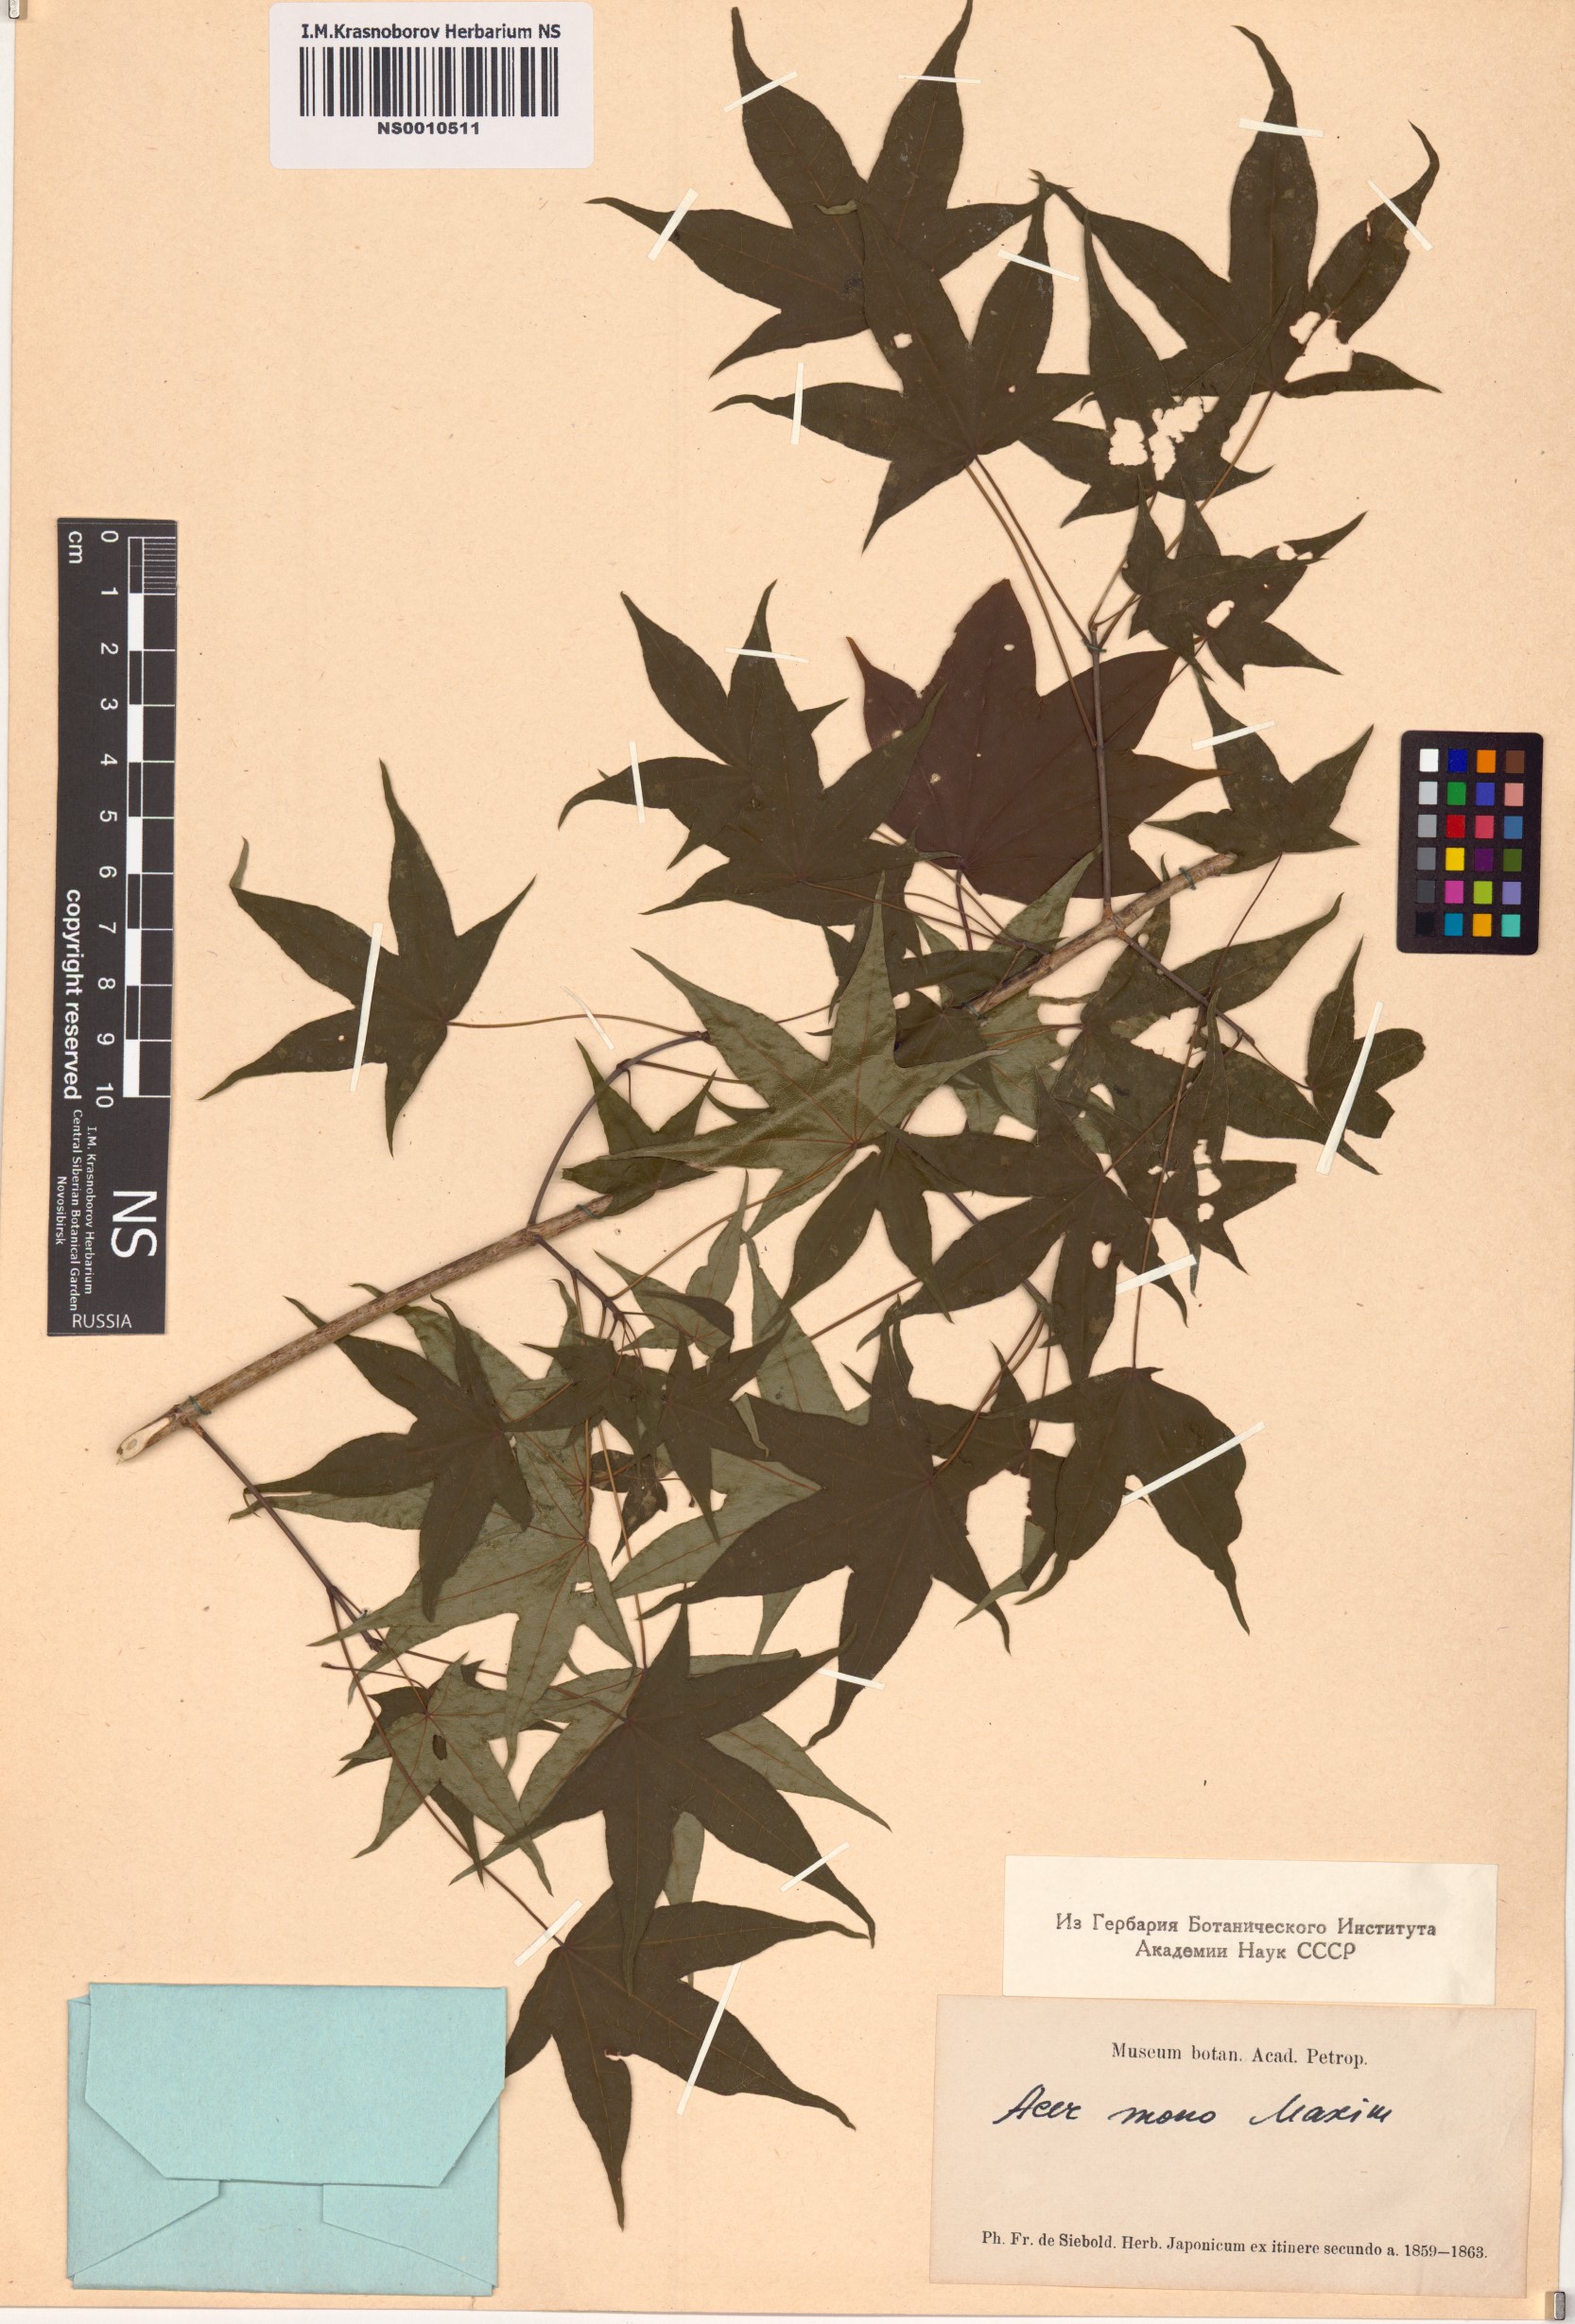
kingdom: Plantae
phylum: Tracheophyta
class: Magnoliopsida
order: Sapindales
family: Sapindaceae
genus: Acer
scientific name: Acer pictum
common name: The painted maple
